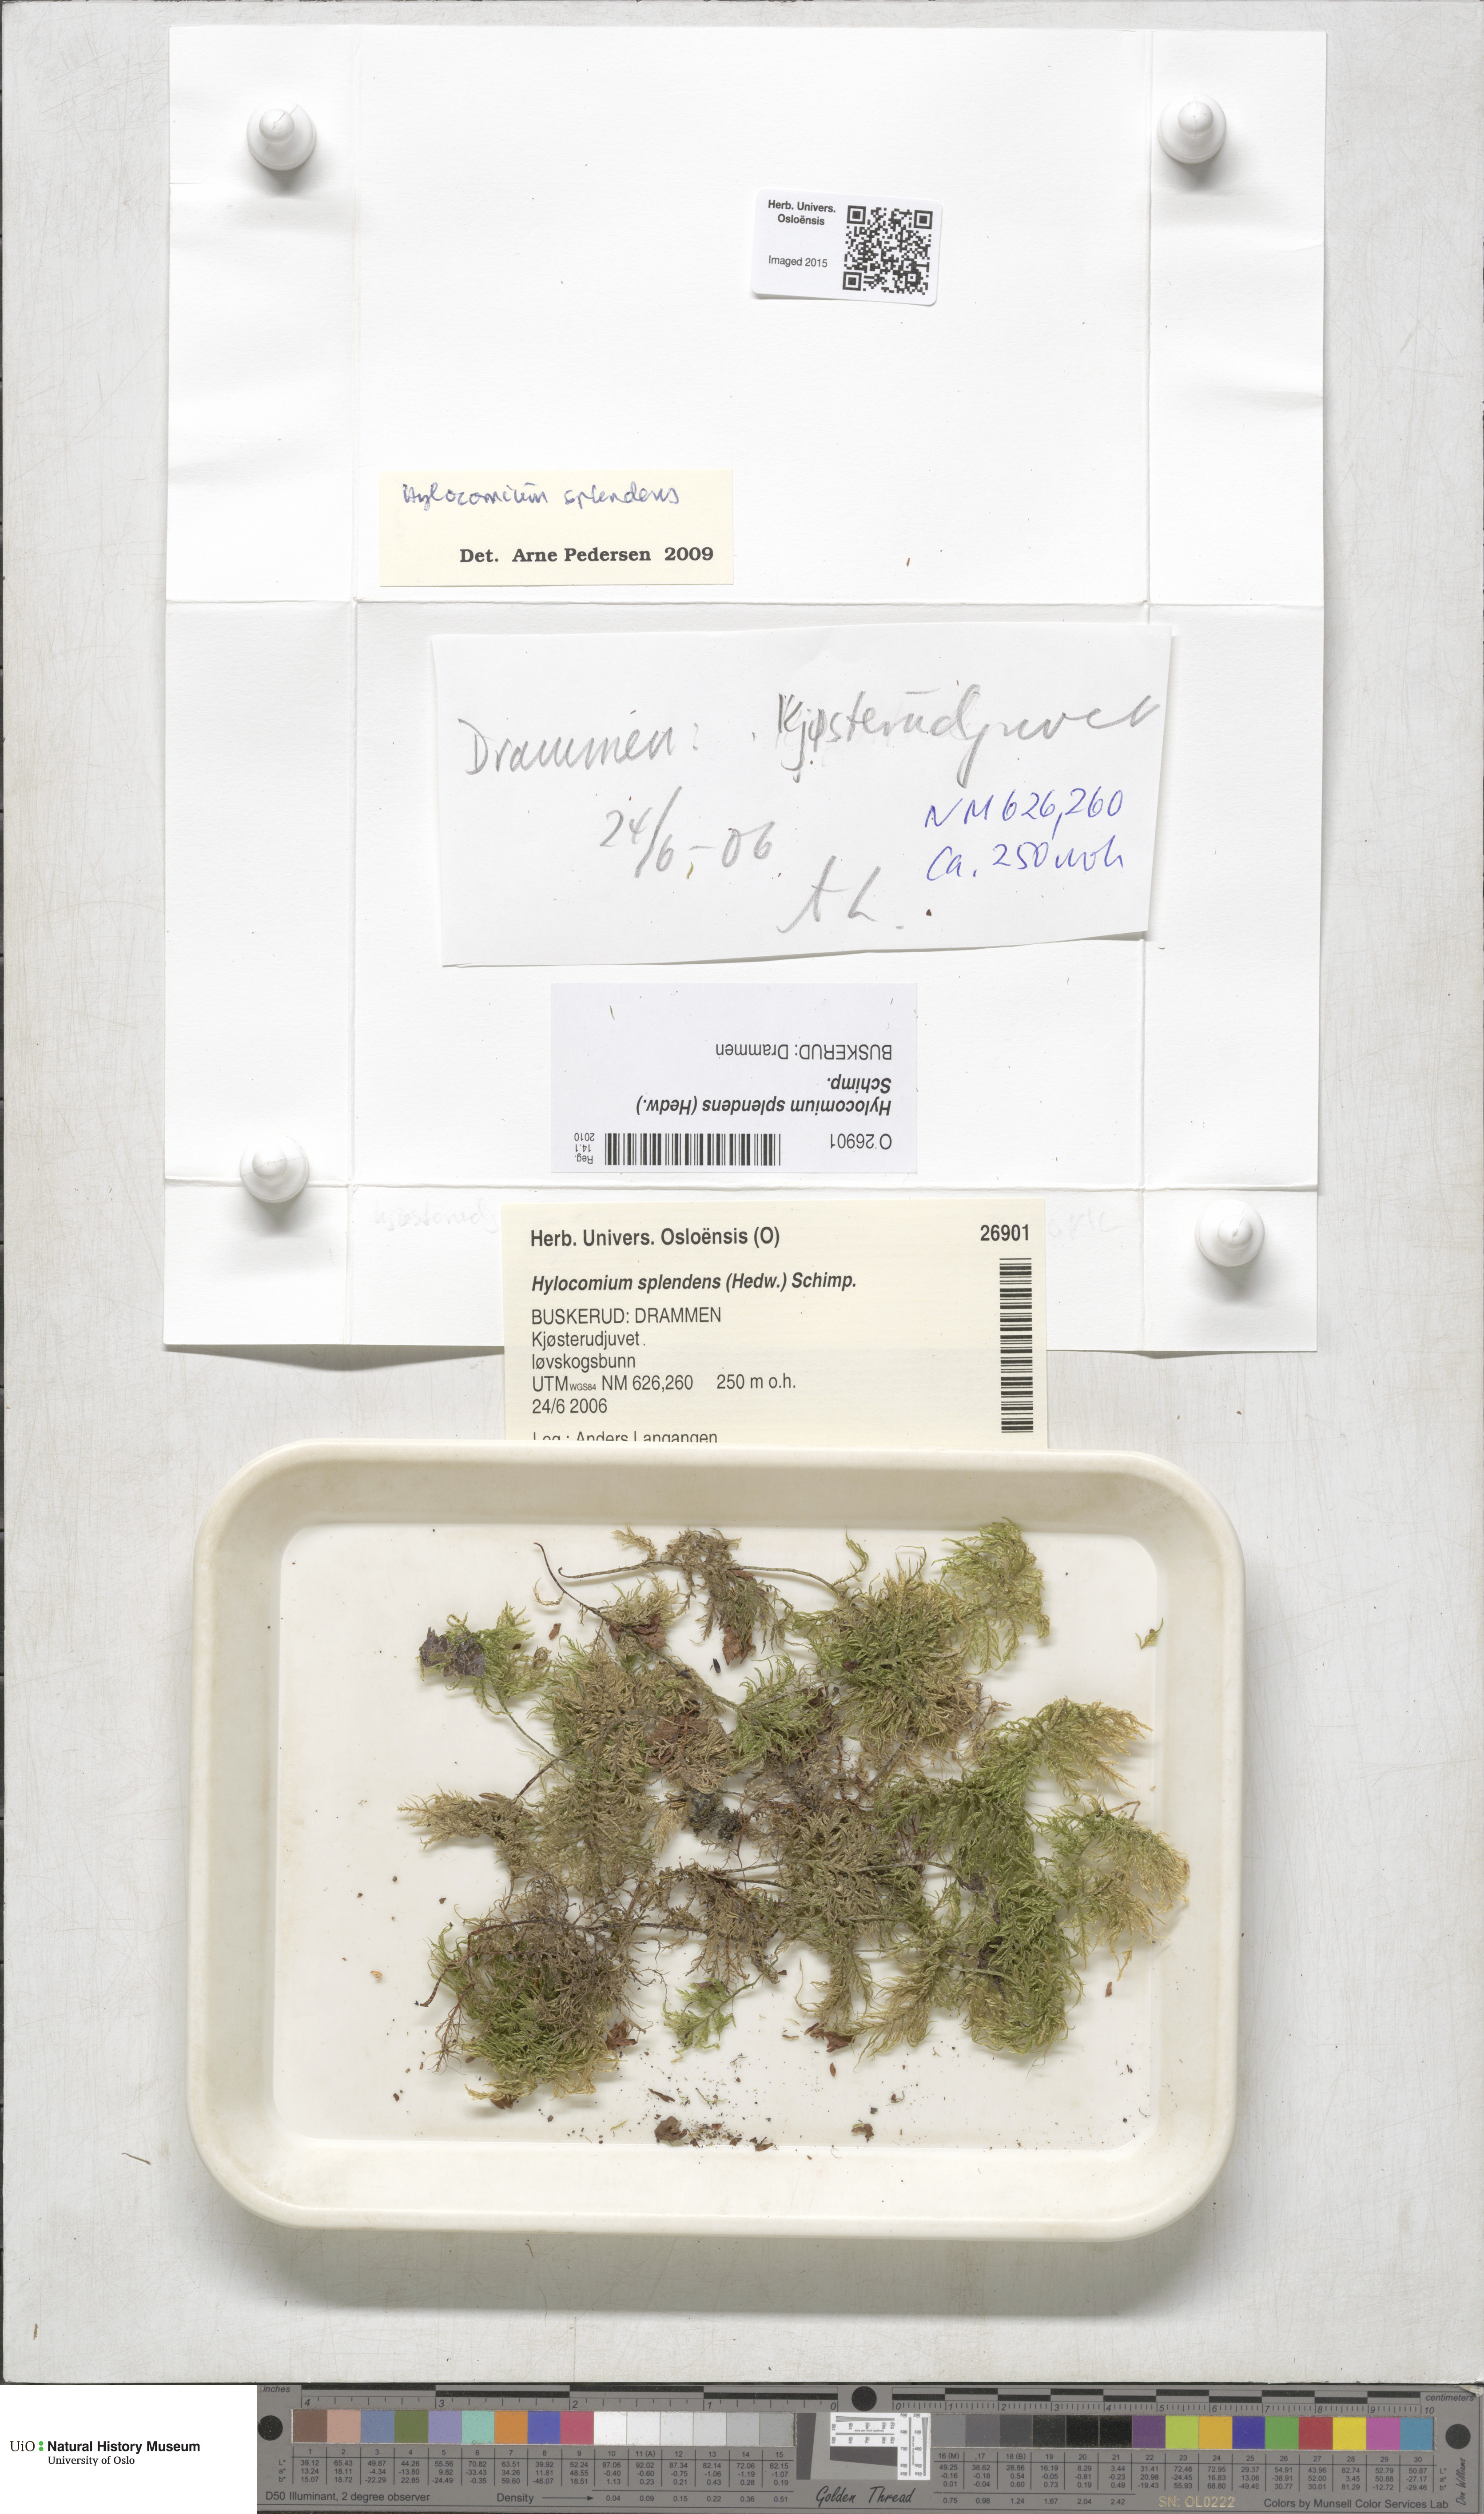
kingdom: Plantae
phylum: Bryophyta
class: Bryopsida
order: Hypnales
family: Hylocomiaceae
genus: Hylocomium
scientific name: Hylocomium splendens
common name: Stairstep moss
